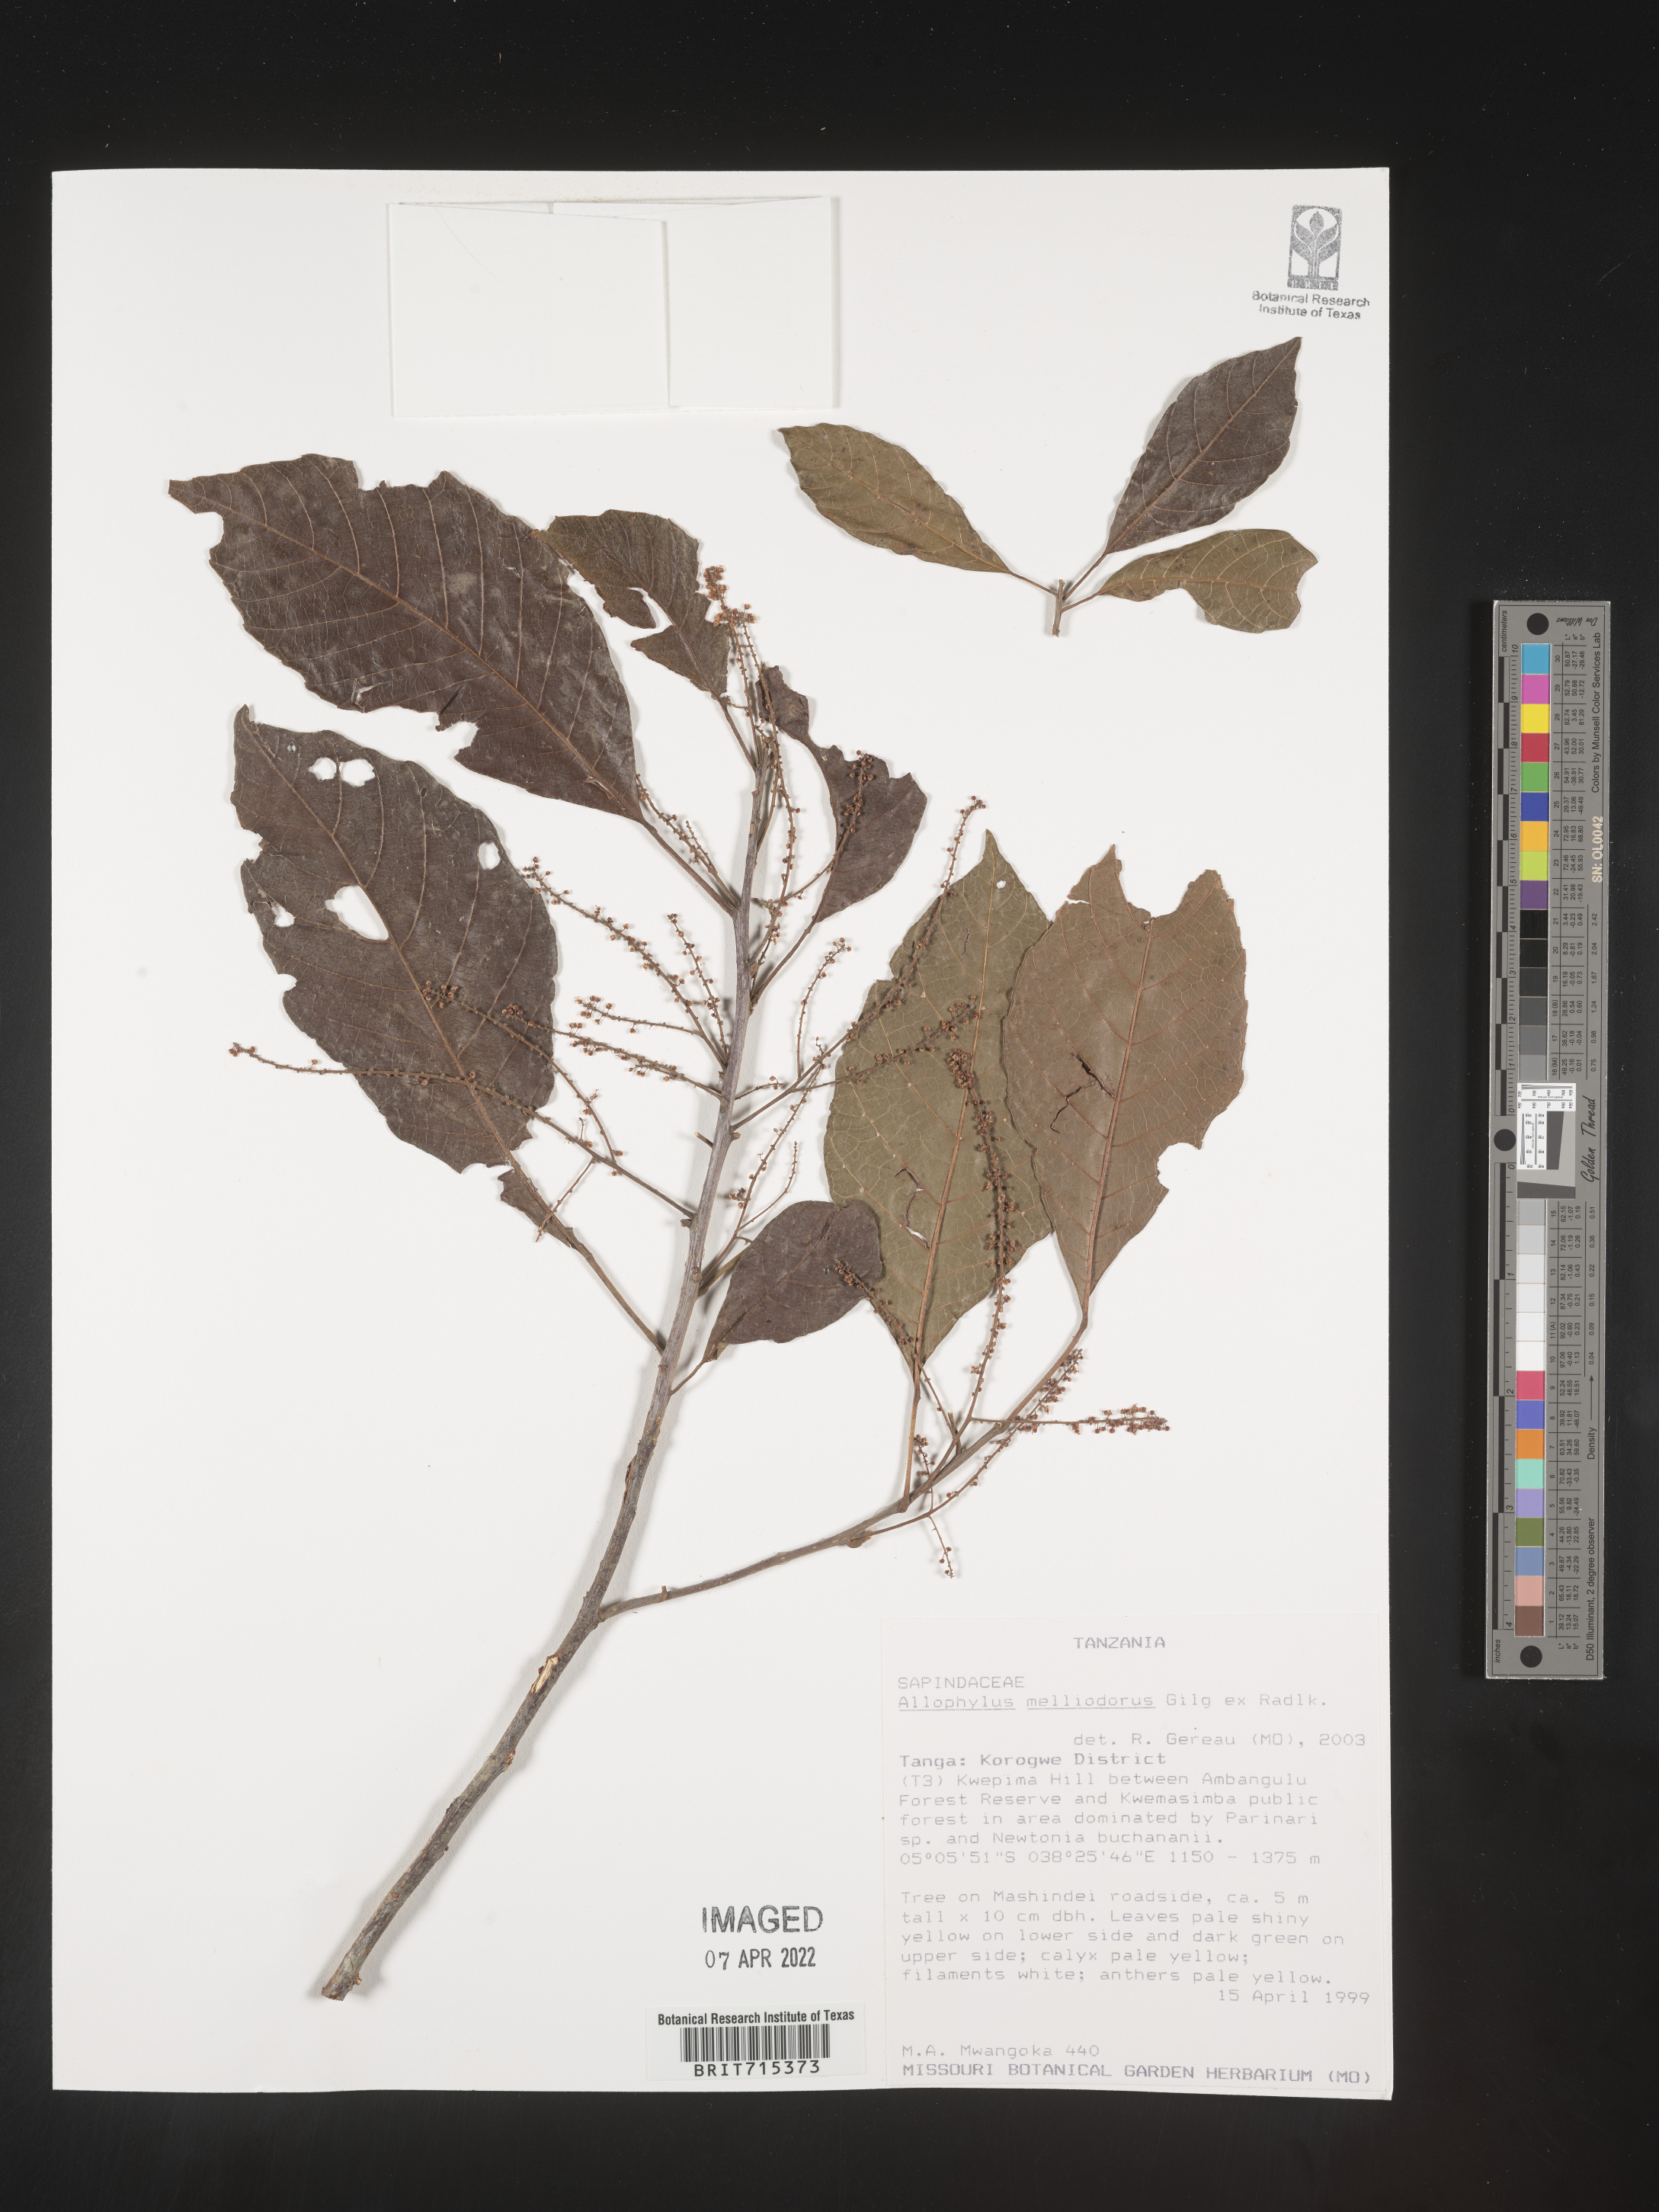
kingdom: Plantae
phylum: Tracheophyta
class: Magnoliopsida
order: Sapindales
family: Sapindaceae
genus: Allophylus
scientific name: Allophylus fulvotomentosus
